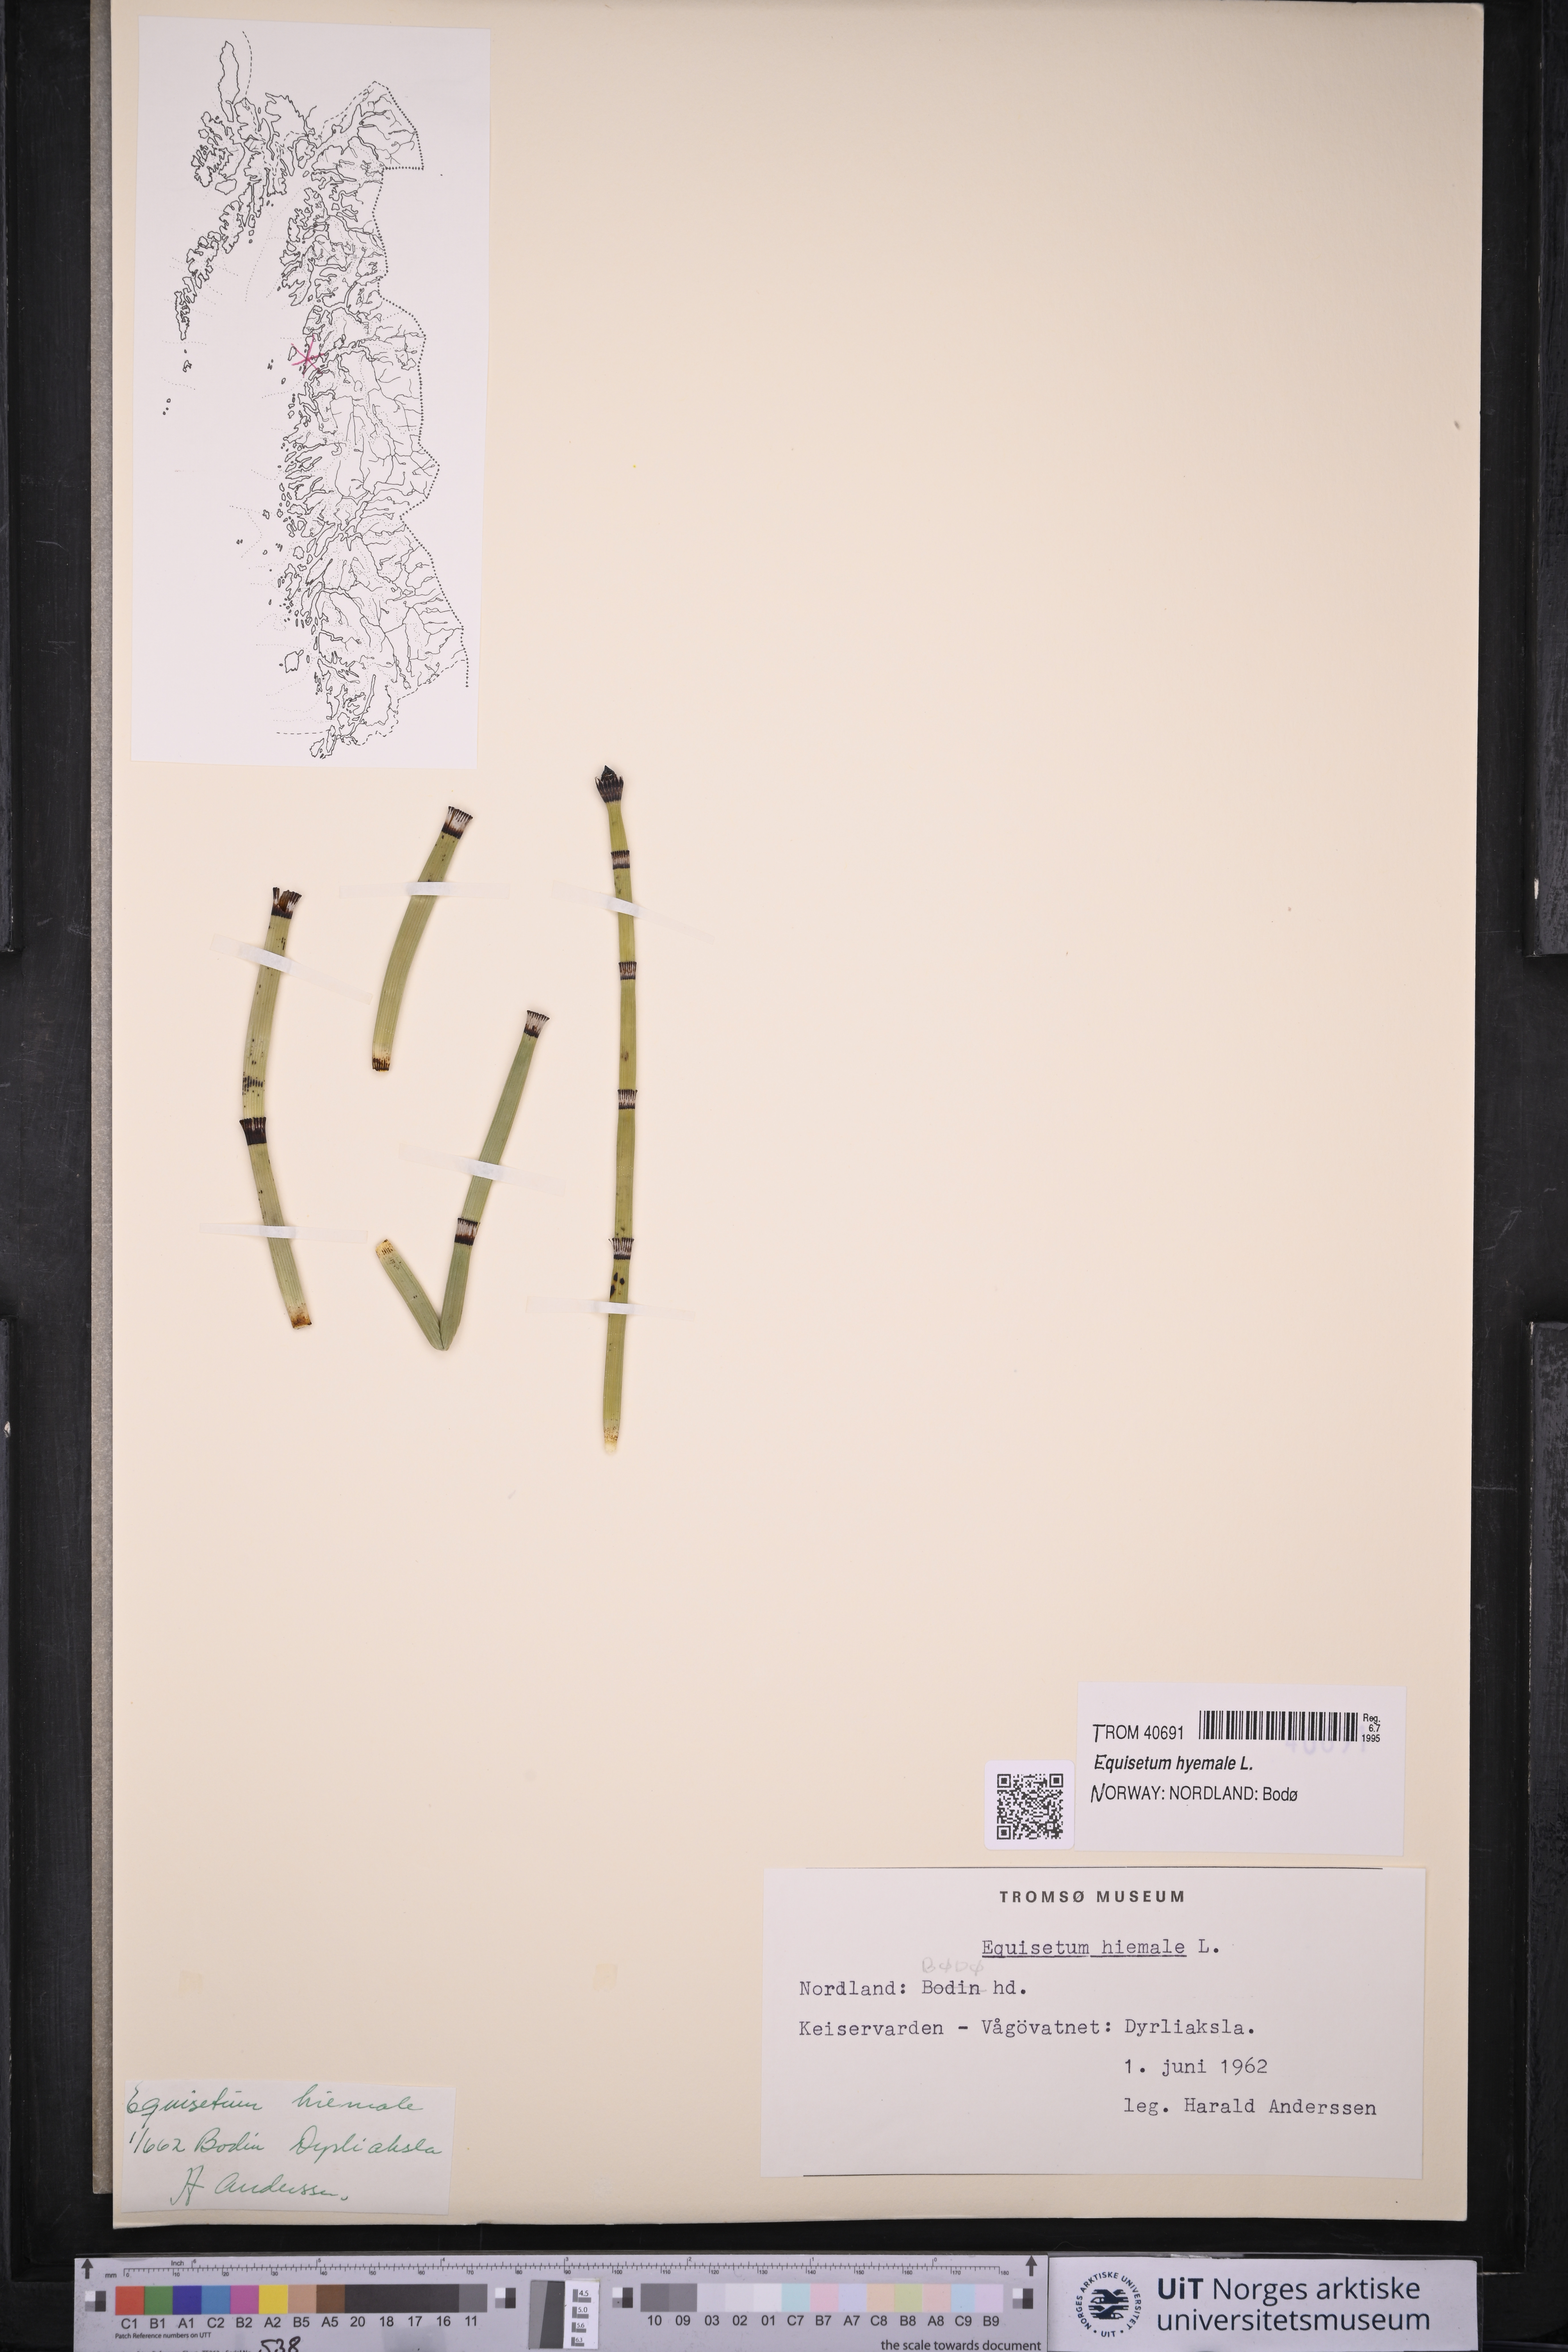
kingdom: Plantae
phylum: Tracheophyta
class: Polypodiopsida
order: Equisetales
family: Equisetaceae
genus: Equisetum
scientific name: Equisetum hyemale
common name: Rough horsetail
